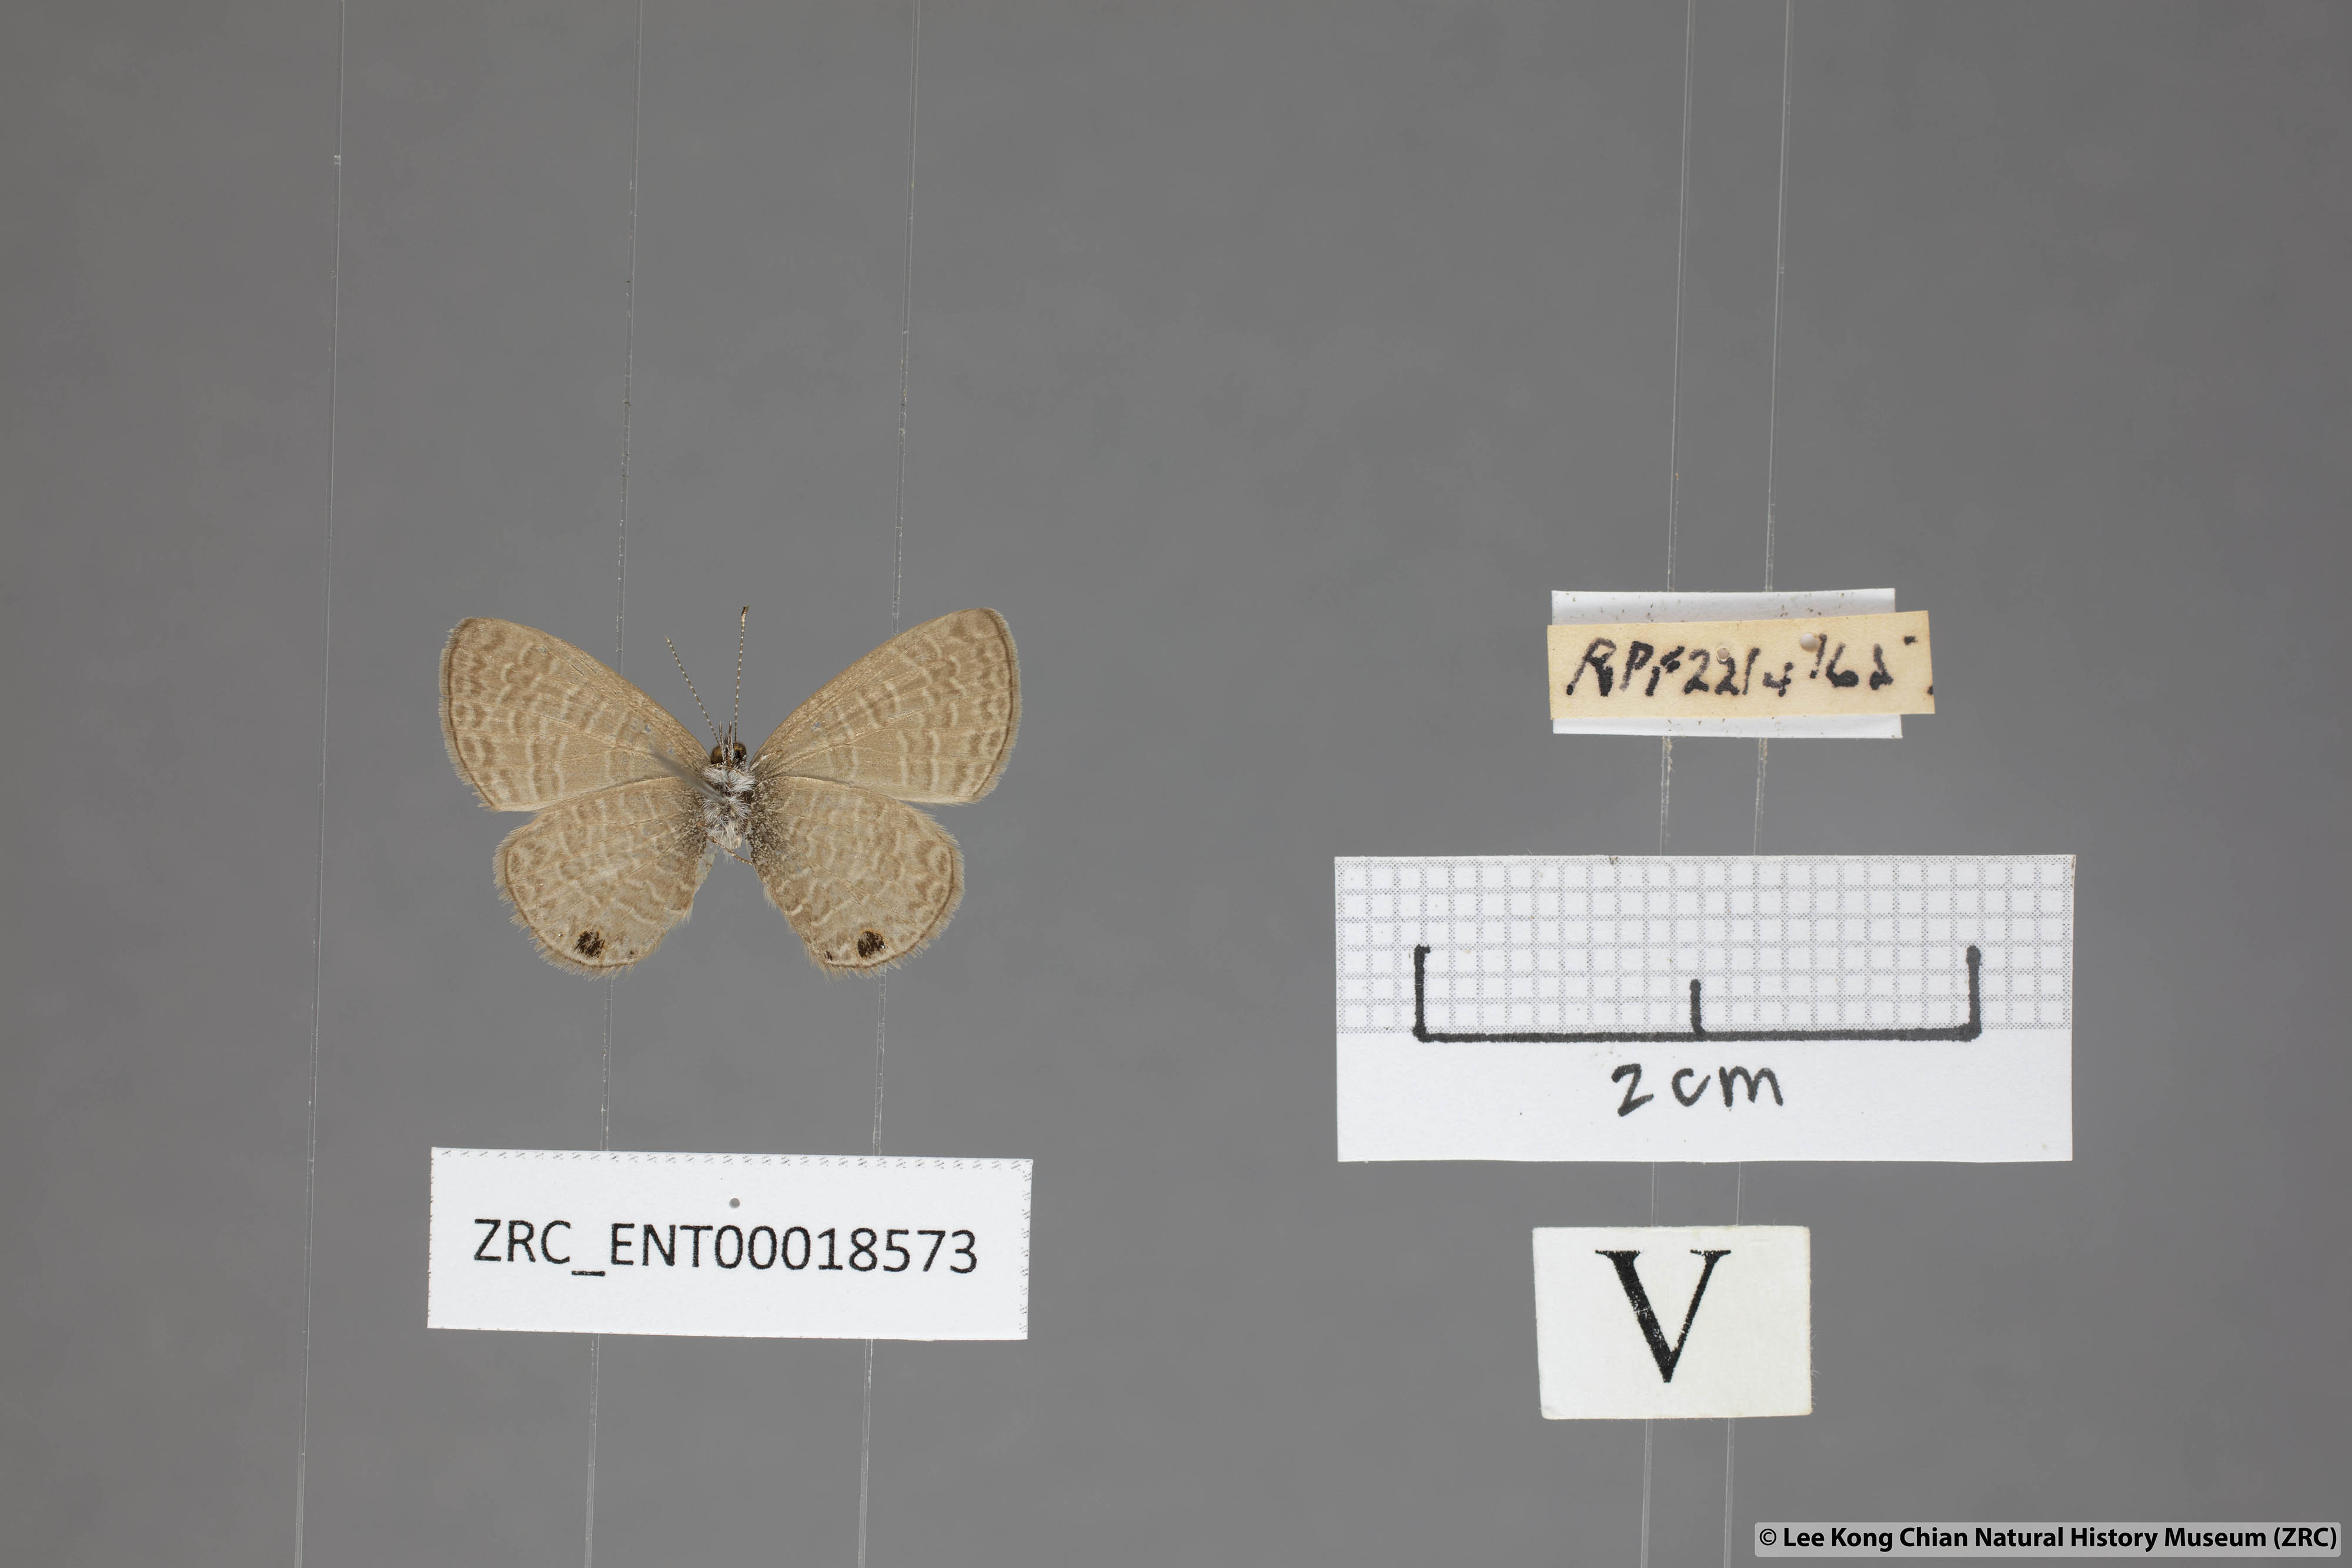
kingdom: Animalia
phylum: Arthropoda
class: Insecta
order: Lepidoptera
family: Lycaenidae
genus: Prosotas
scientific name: Prosotas dubiosa
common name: Tailless lineblue
